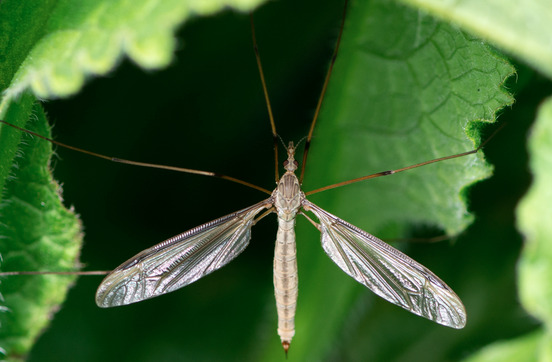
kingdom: Animalia
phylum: Arthropoda
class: Insecta
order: Diptera
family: Tipulidae
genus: Tipula
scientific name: Tipula oleracea
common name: Kålstankelben
